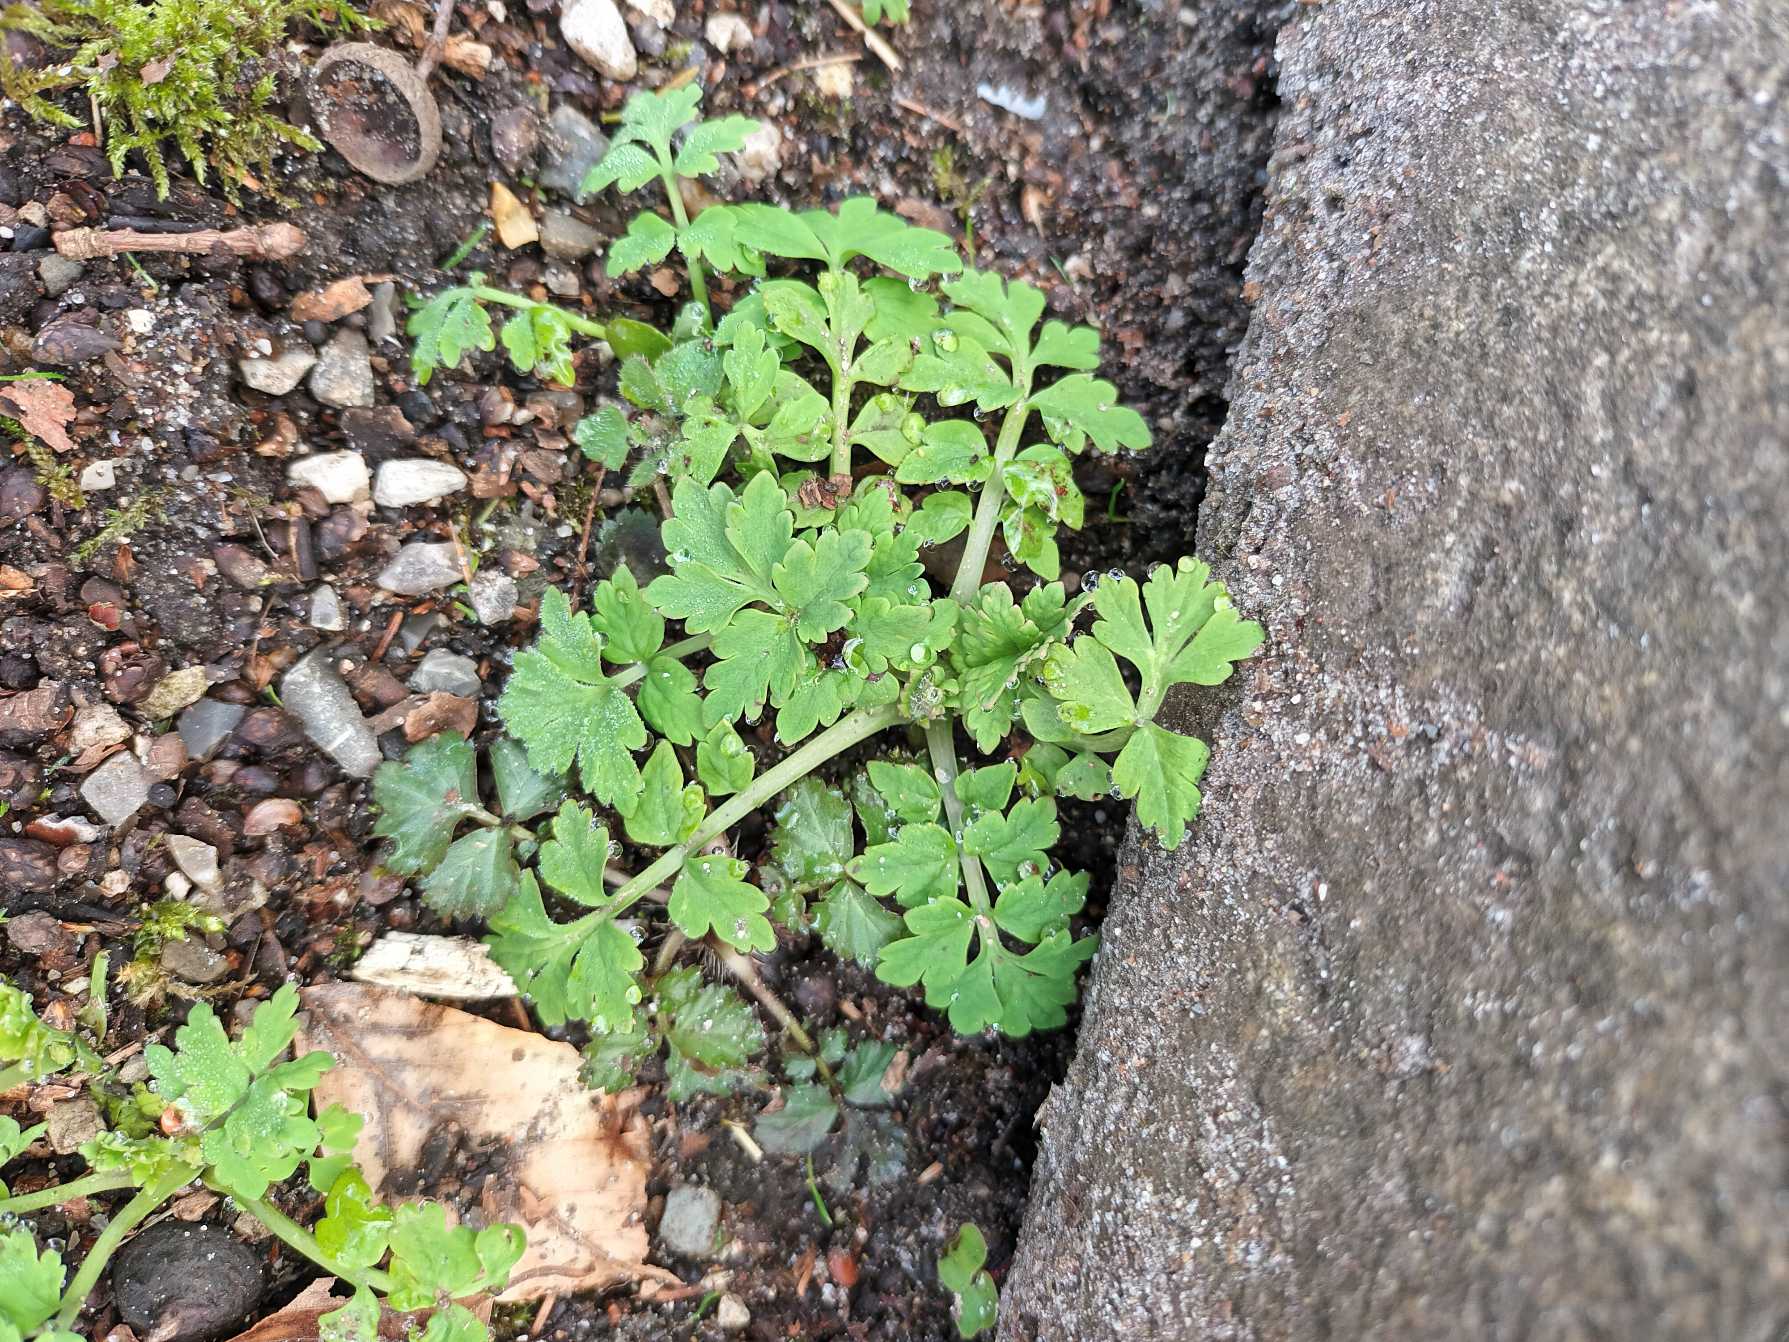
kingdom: Plantae
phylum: Tracheophyta
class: Magnoliopsida
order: Ranunculales
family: Papaveraceae
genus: Papaver
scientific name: Papaver cambricum
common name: Skov-valmue
